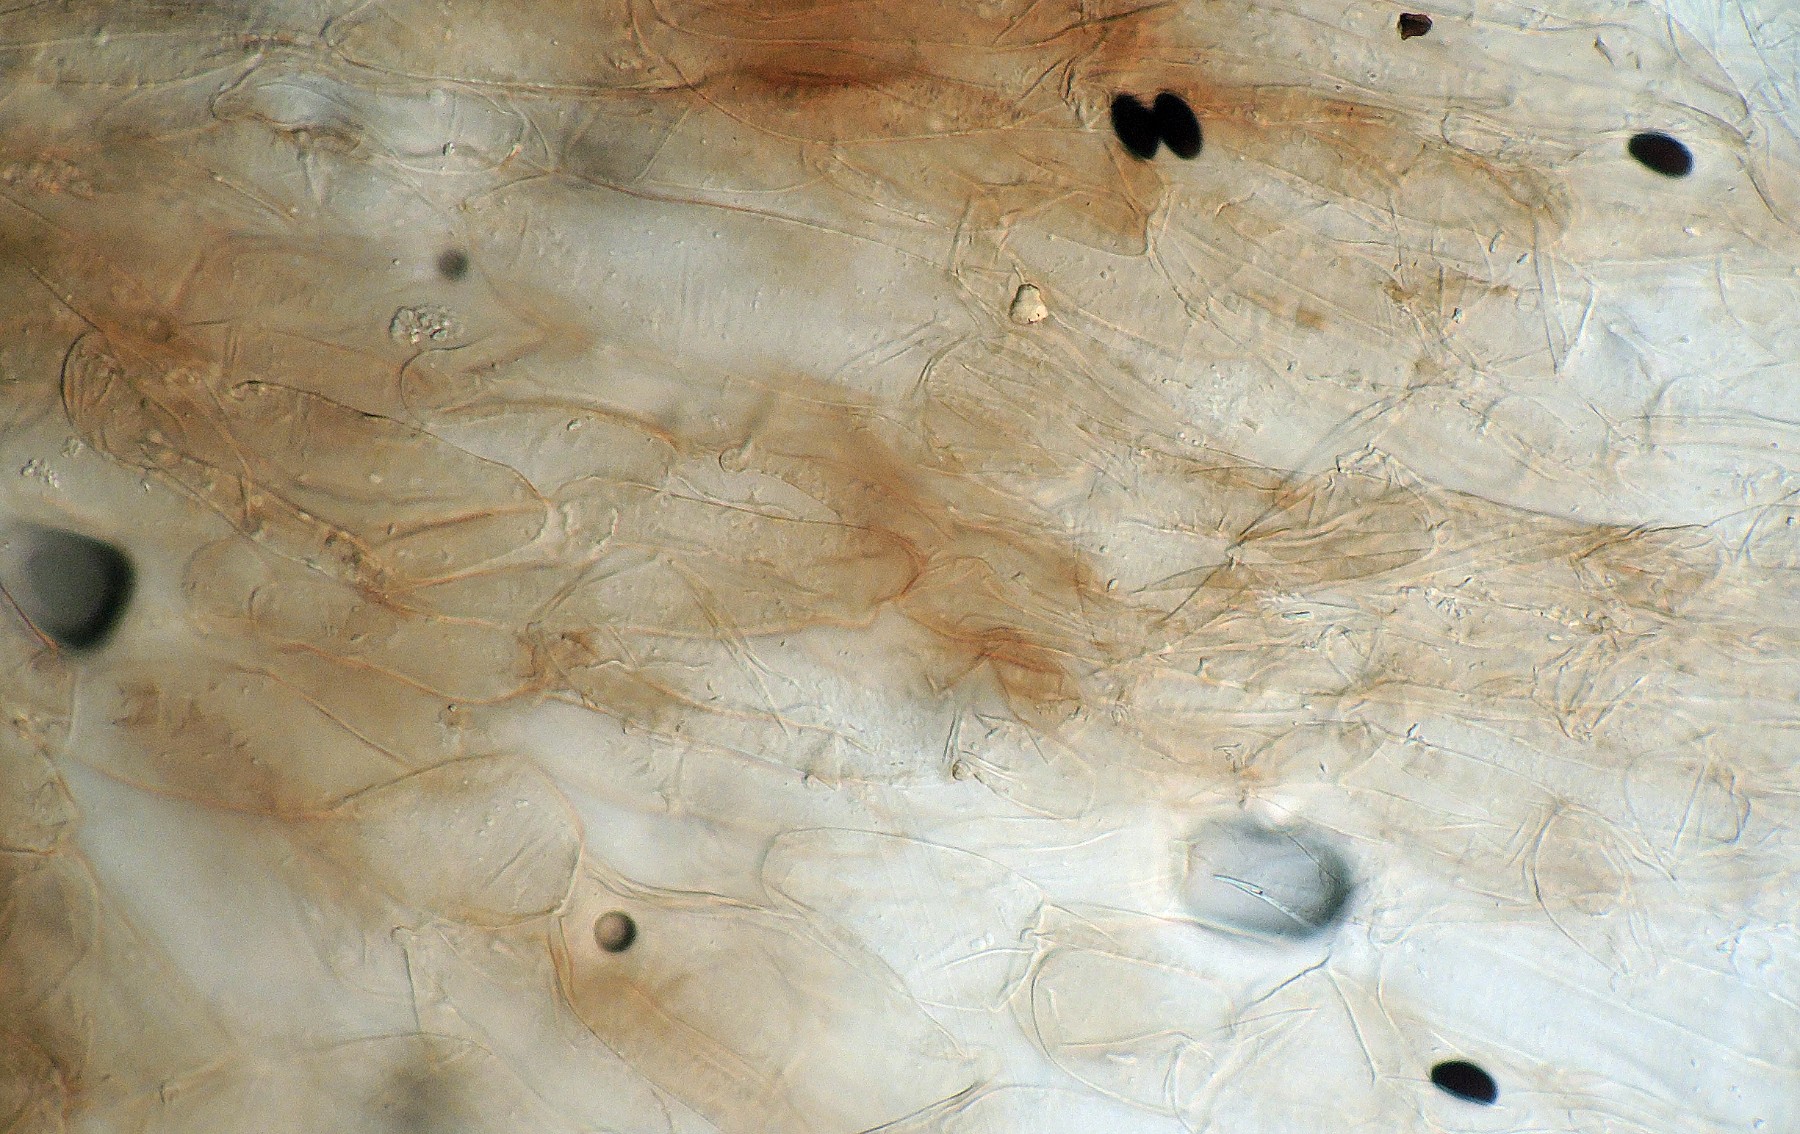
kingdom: Fungi
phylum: Basidiomycota
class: Agaricomycetes
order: Agaricales
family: Psathyrellaceae
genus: Coprinopsis
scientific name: Coprinopsis lagopus
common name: dunstokket blækhat
